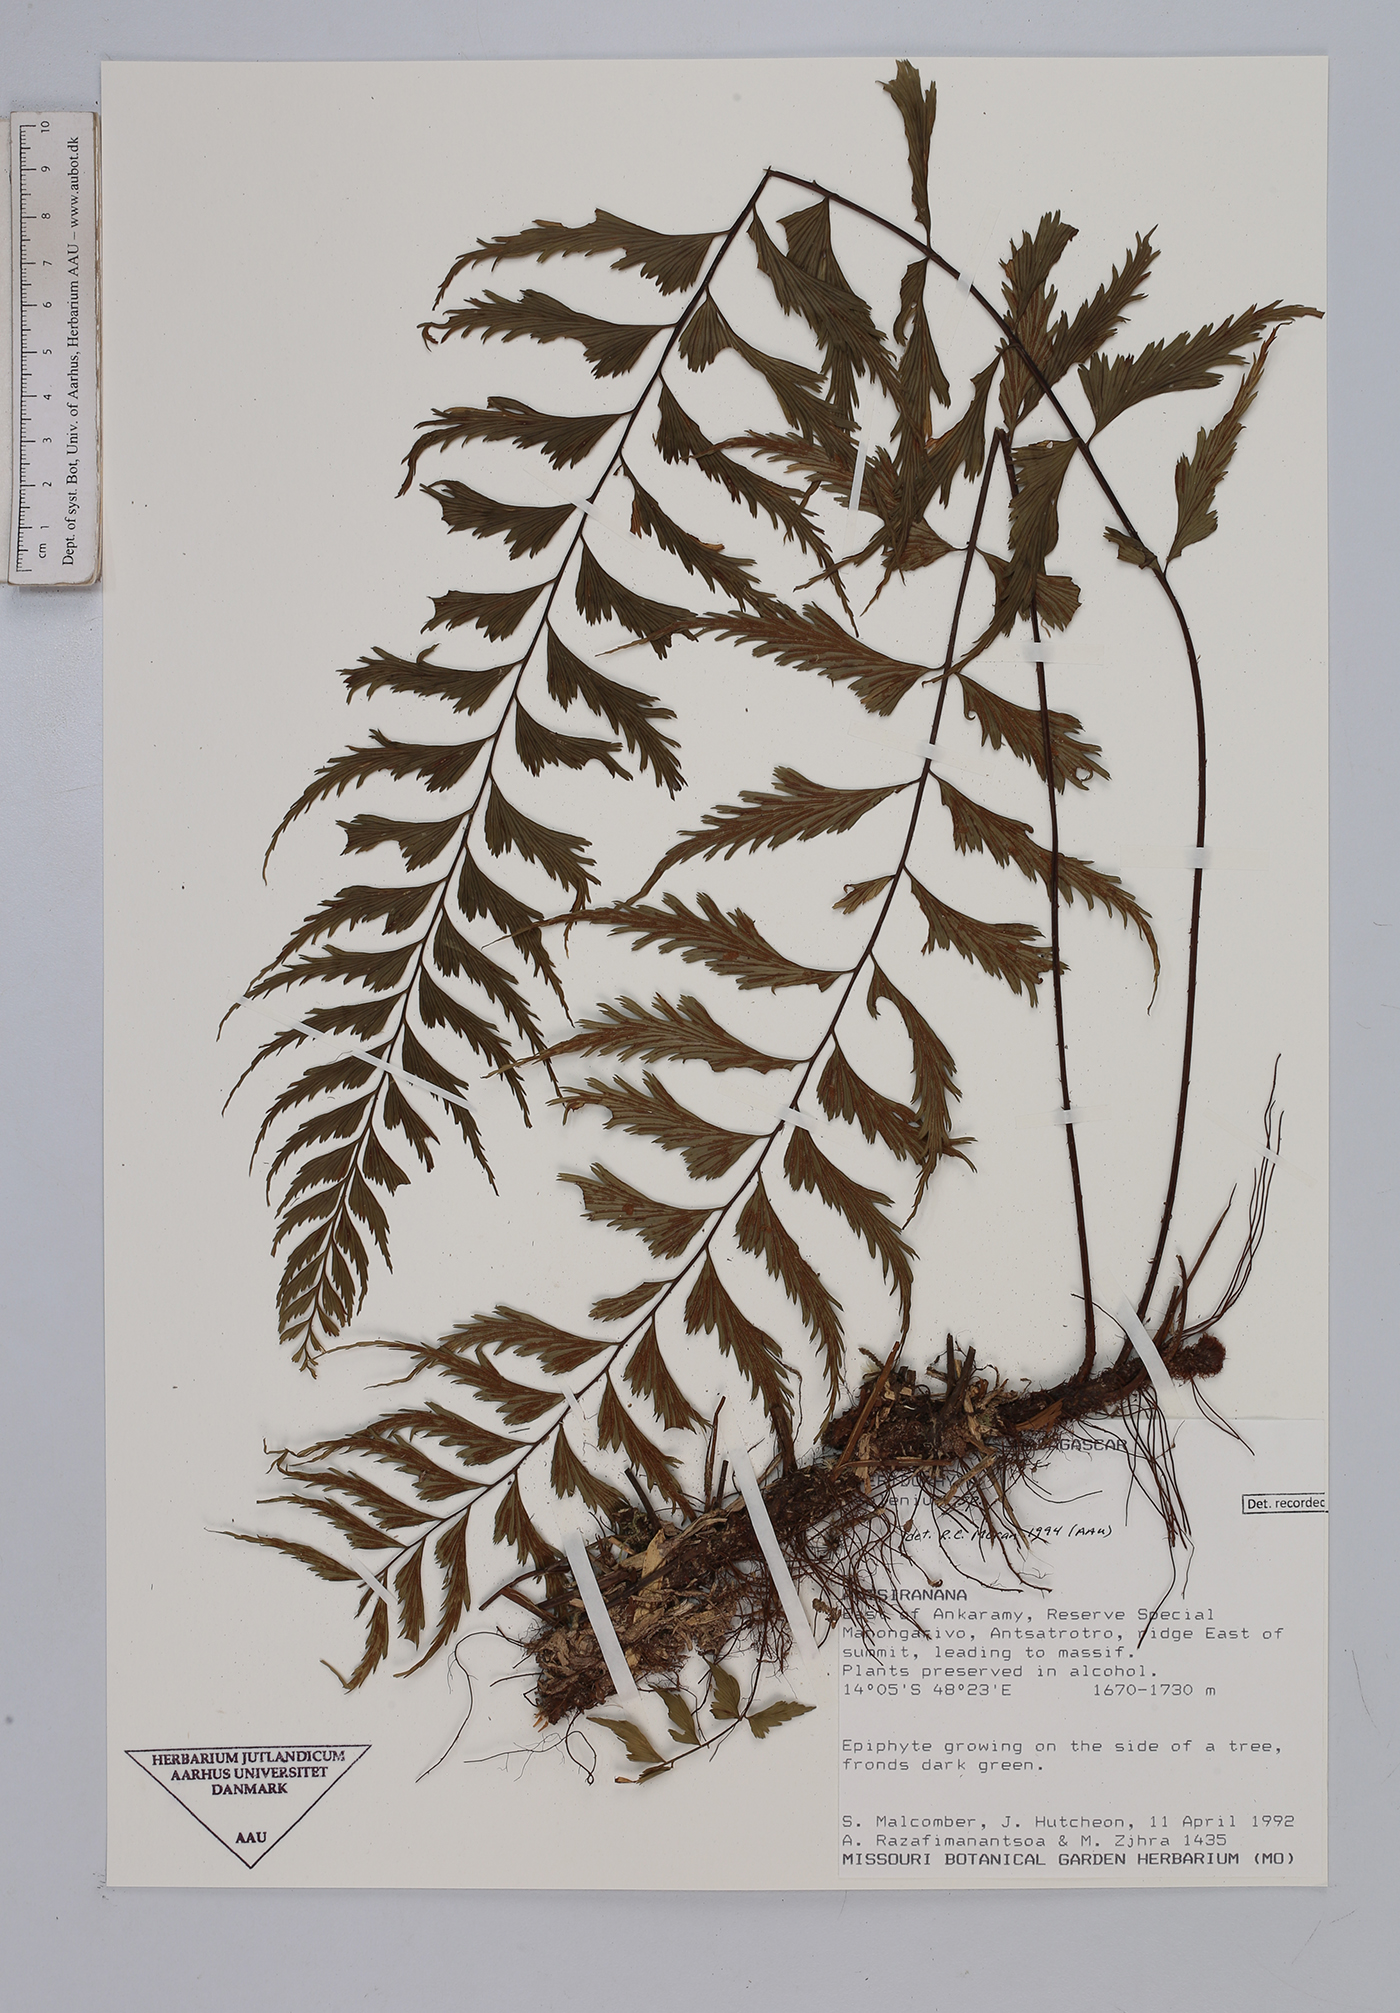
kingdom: Plantae
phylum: Tracheophyta
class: Polypodiopsida
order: Polypodiales
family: Aspleniaceae
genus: Asplenium
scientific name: Asplenium
